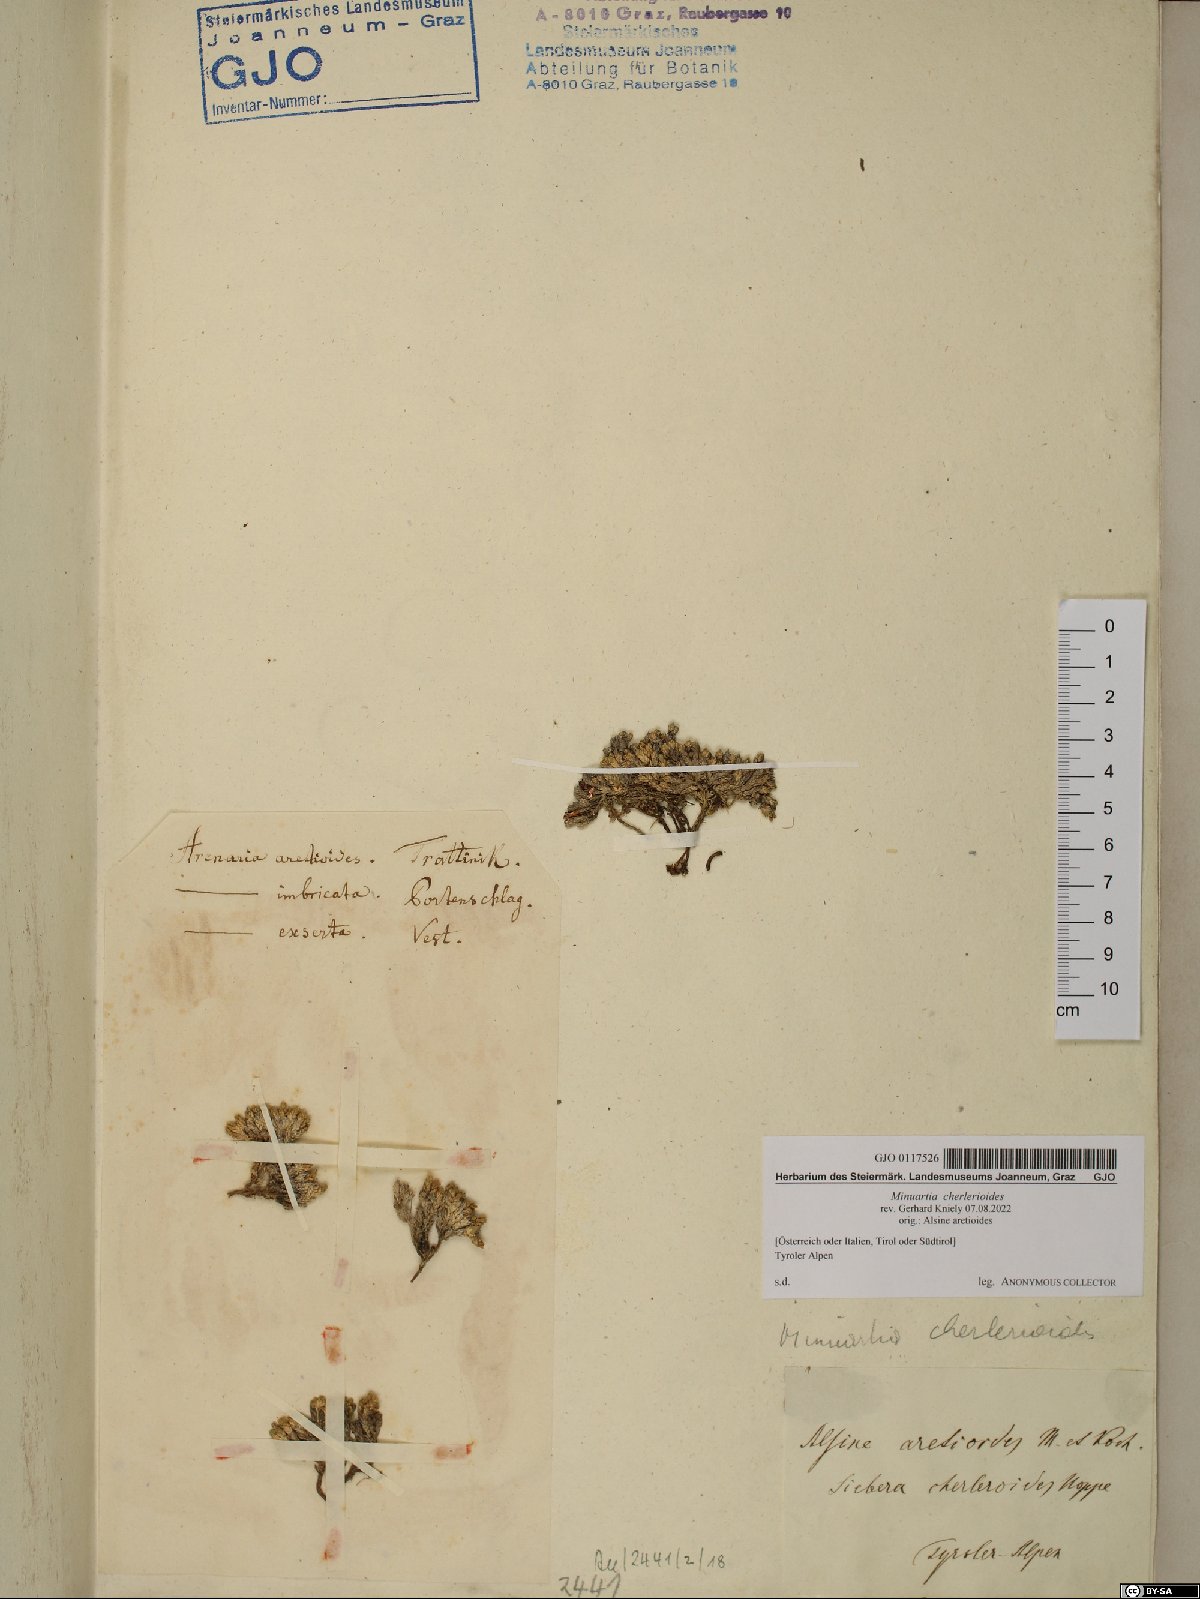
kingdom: Plantae
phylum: Tracheophyta
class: Magnoliopsida
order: Caryophyllales
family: Caryophyllaceae
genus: Facchinia
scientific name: Facchinia cherlerioides
